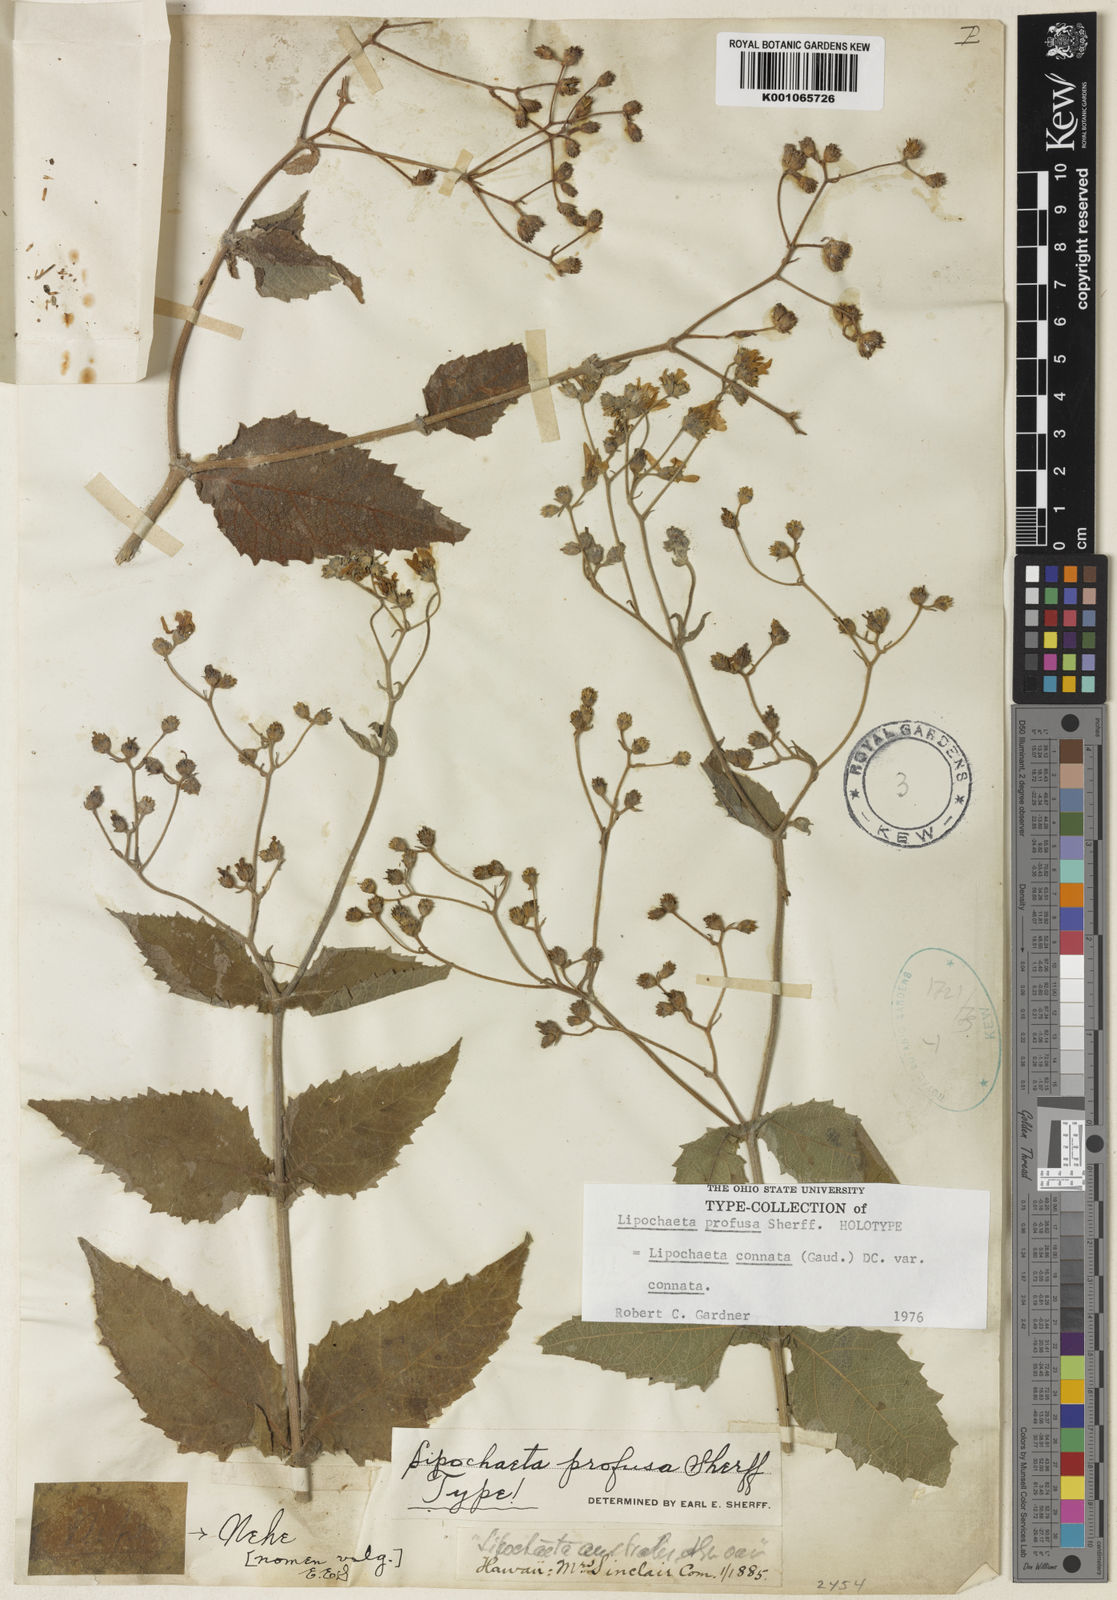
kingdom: Plantae
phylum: Tracheophyta
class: Magnoliopsida
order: Asterales
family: Asteraceae
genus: Lipochaeta
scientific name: Lipochaeta connata
